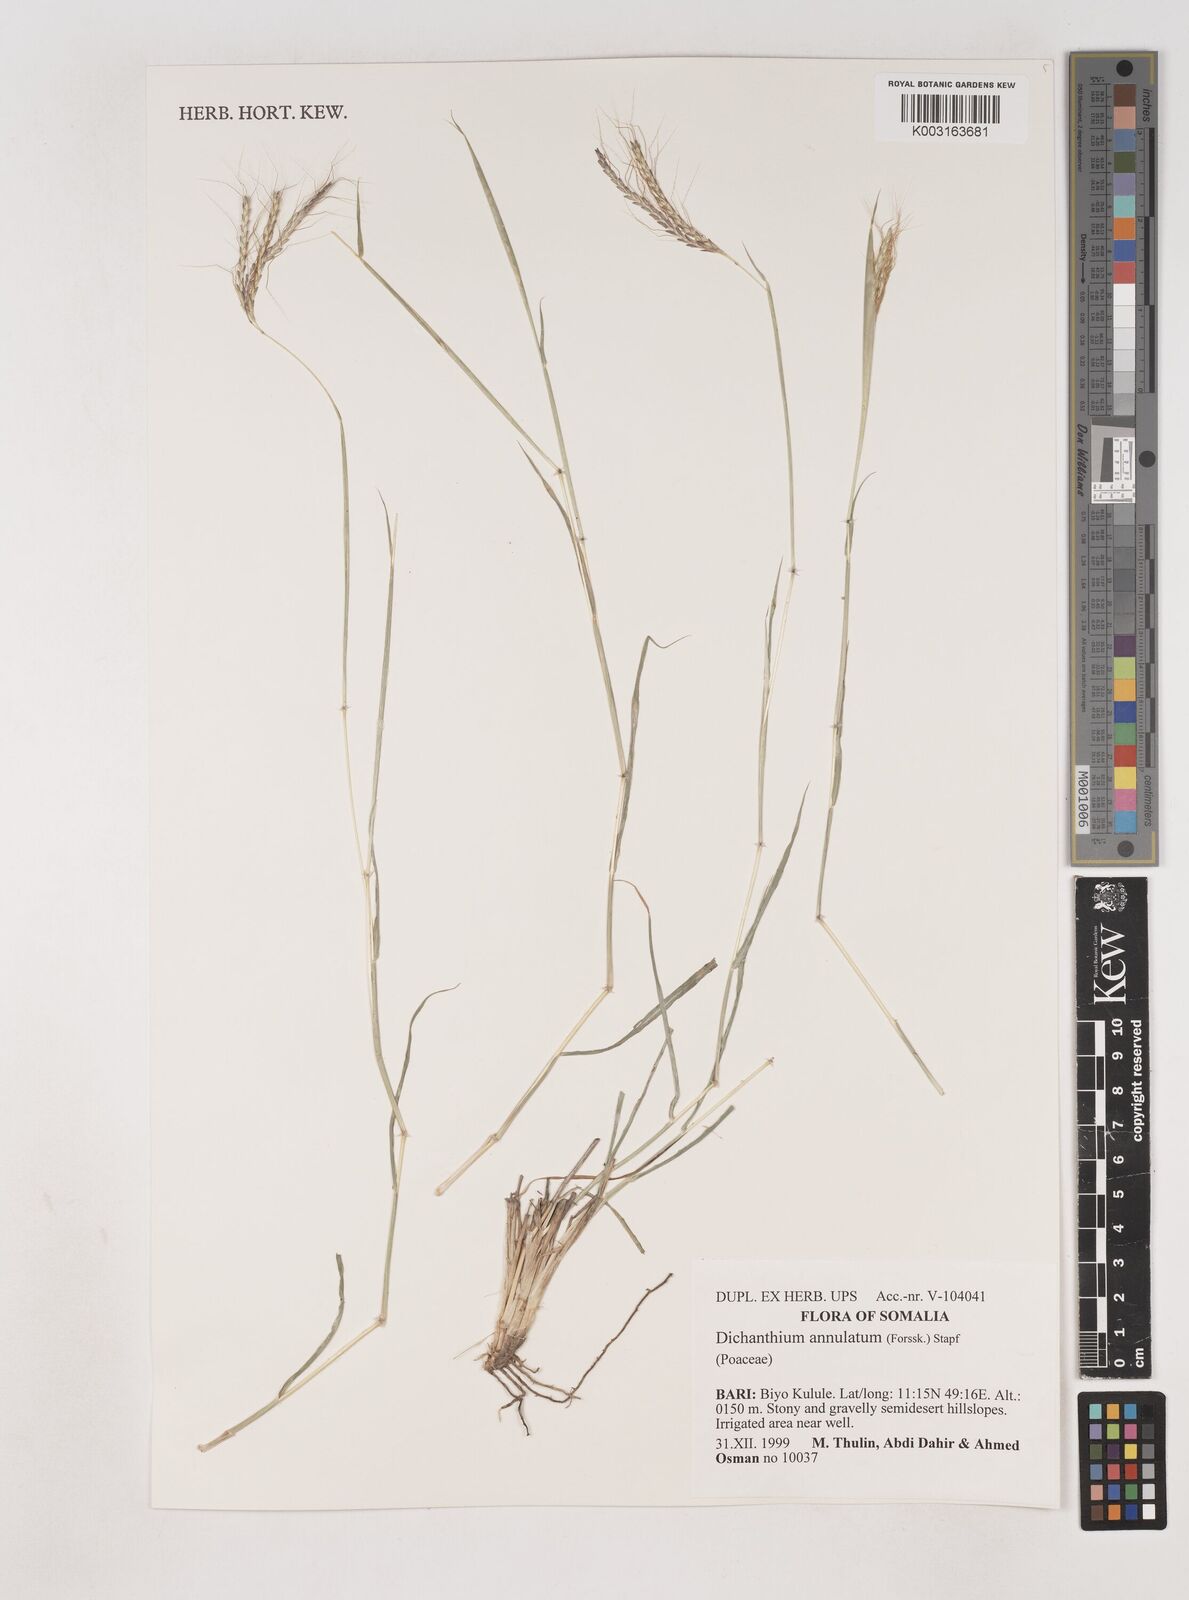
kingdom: Plantae
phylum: Tracheophyta
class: Liliopsida
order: Poales
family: Poaceae
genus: Dichanthium
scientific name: Dichanthium annulatum
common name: Kleberg's bluestem
